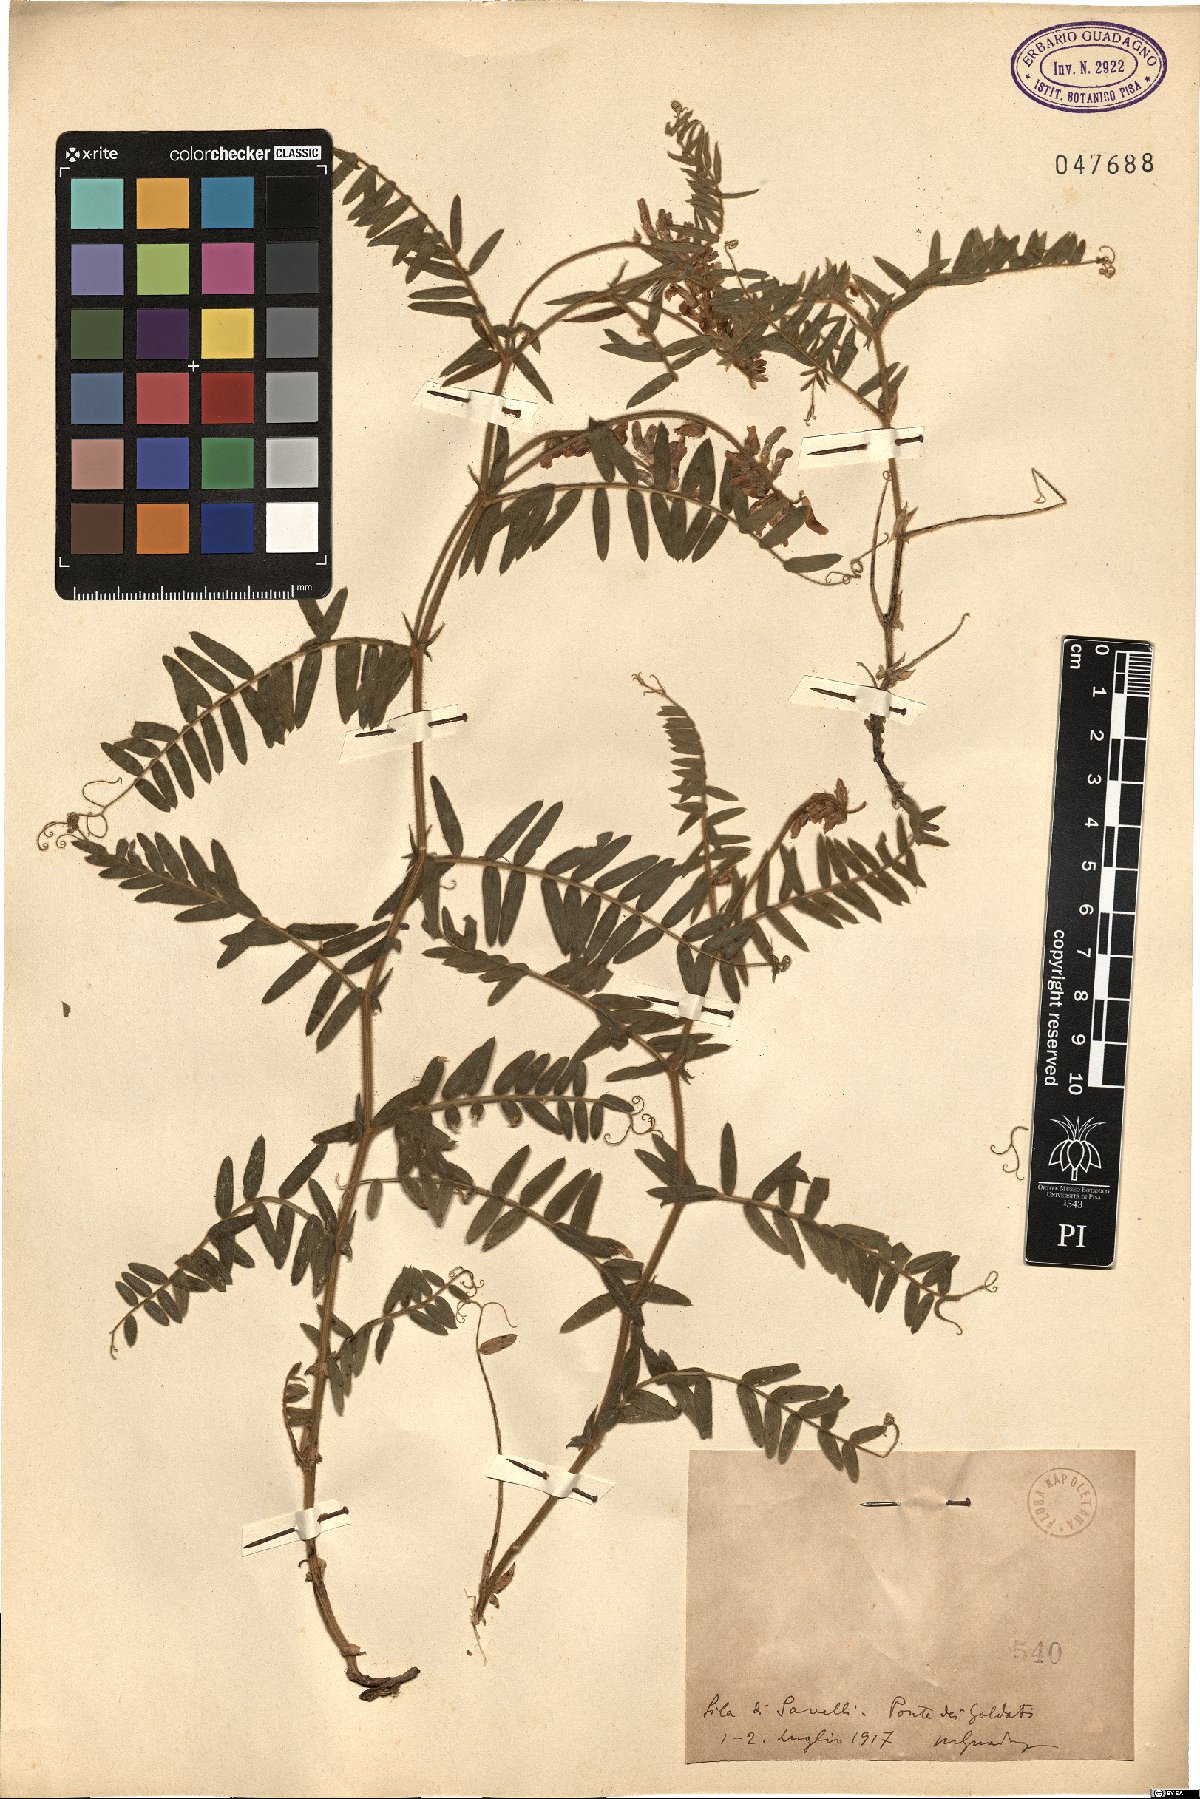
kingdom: Plantae
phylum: Tracheophyta
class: Magnoliopsida
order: Fabales
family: Fabaceae
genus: Vicia
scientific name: Vicia
